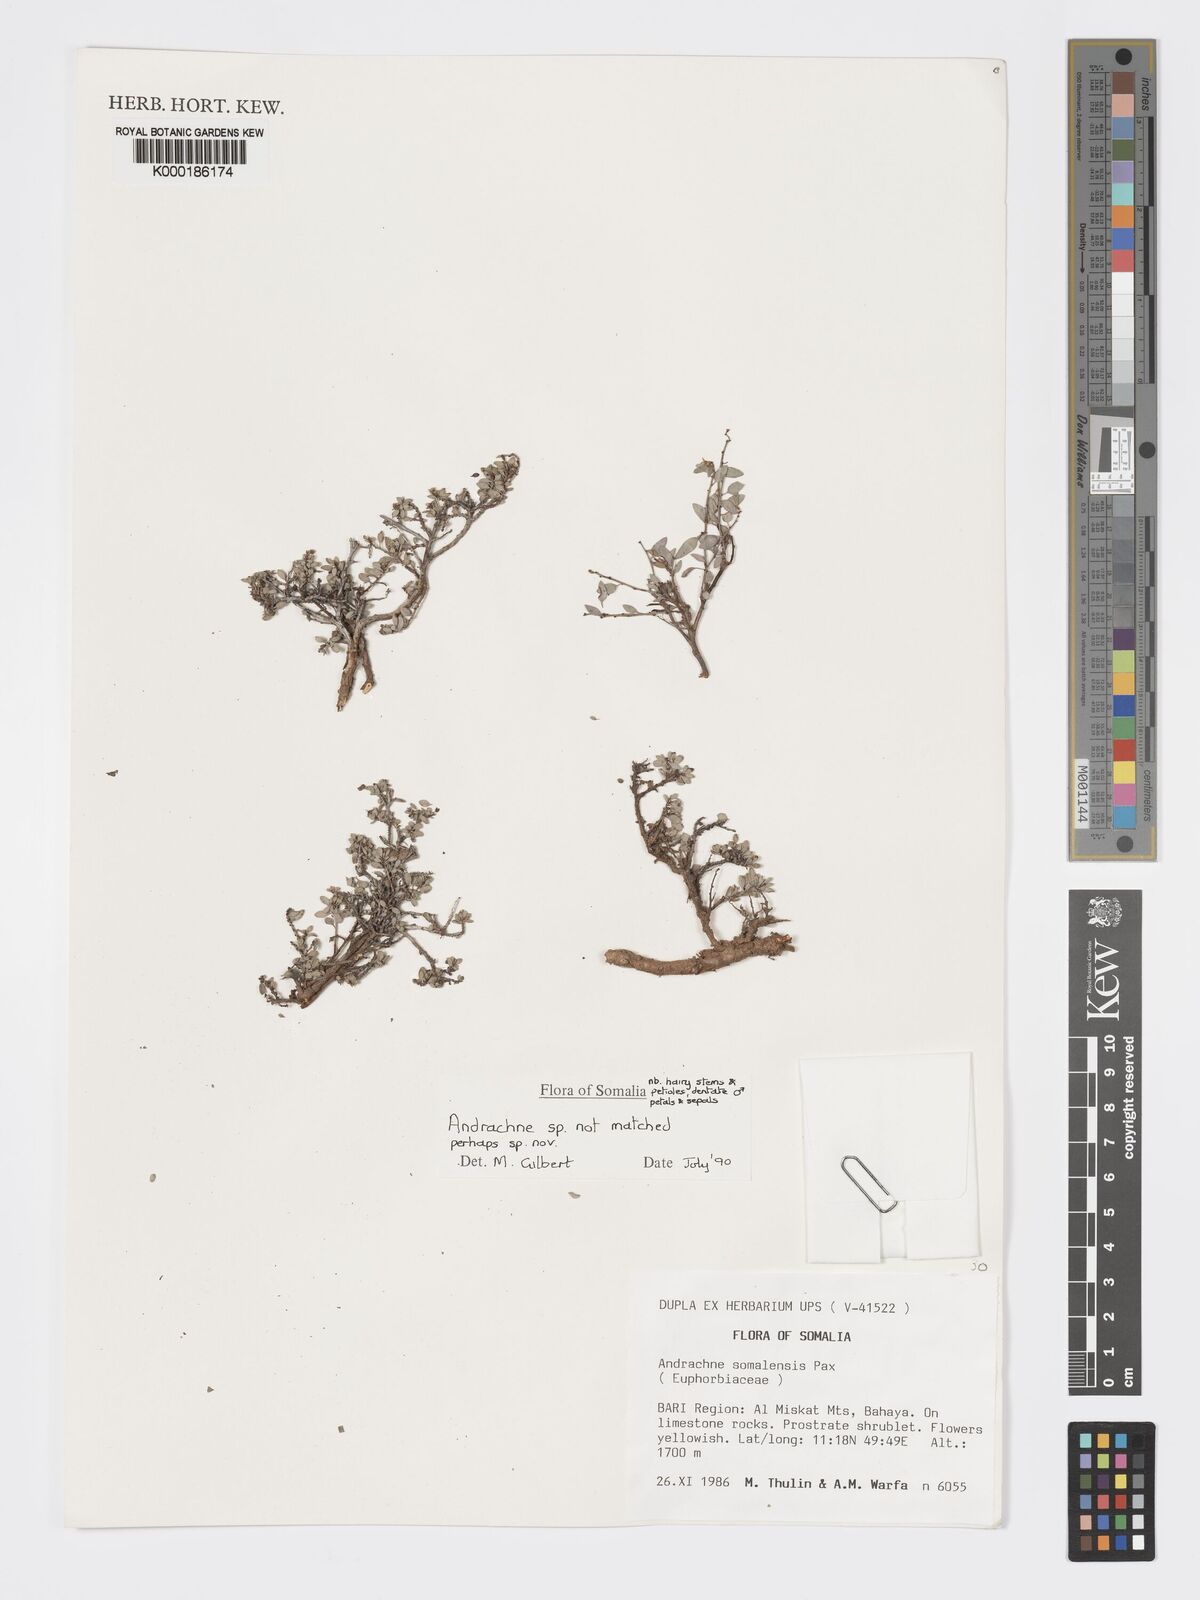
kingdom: Plantae
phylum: Tracheophyta
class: Magnoliopsida
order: Malpighiales
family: Phyllanthaceae
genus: Andrachne
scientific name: Andrachne
